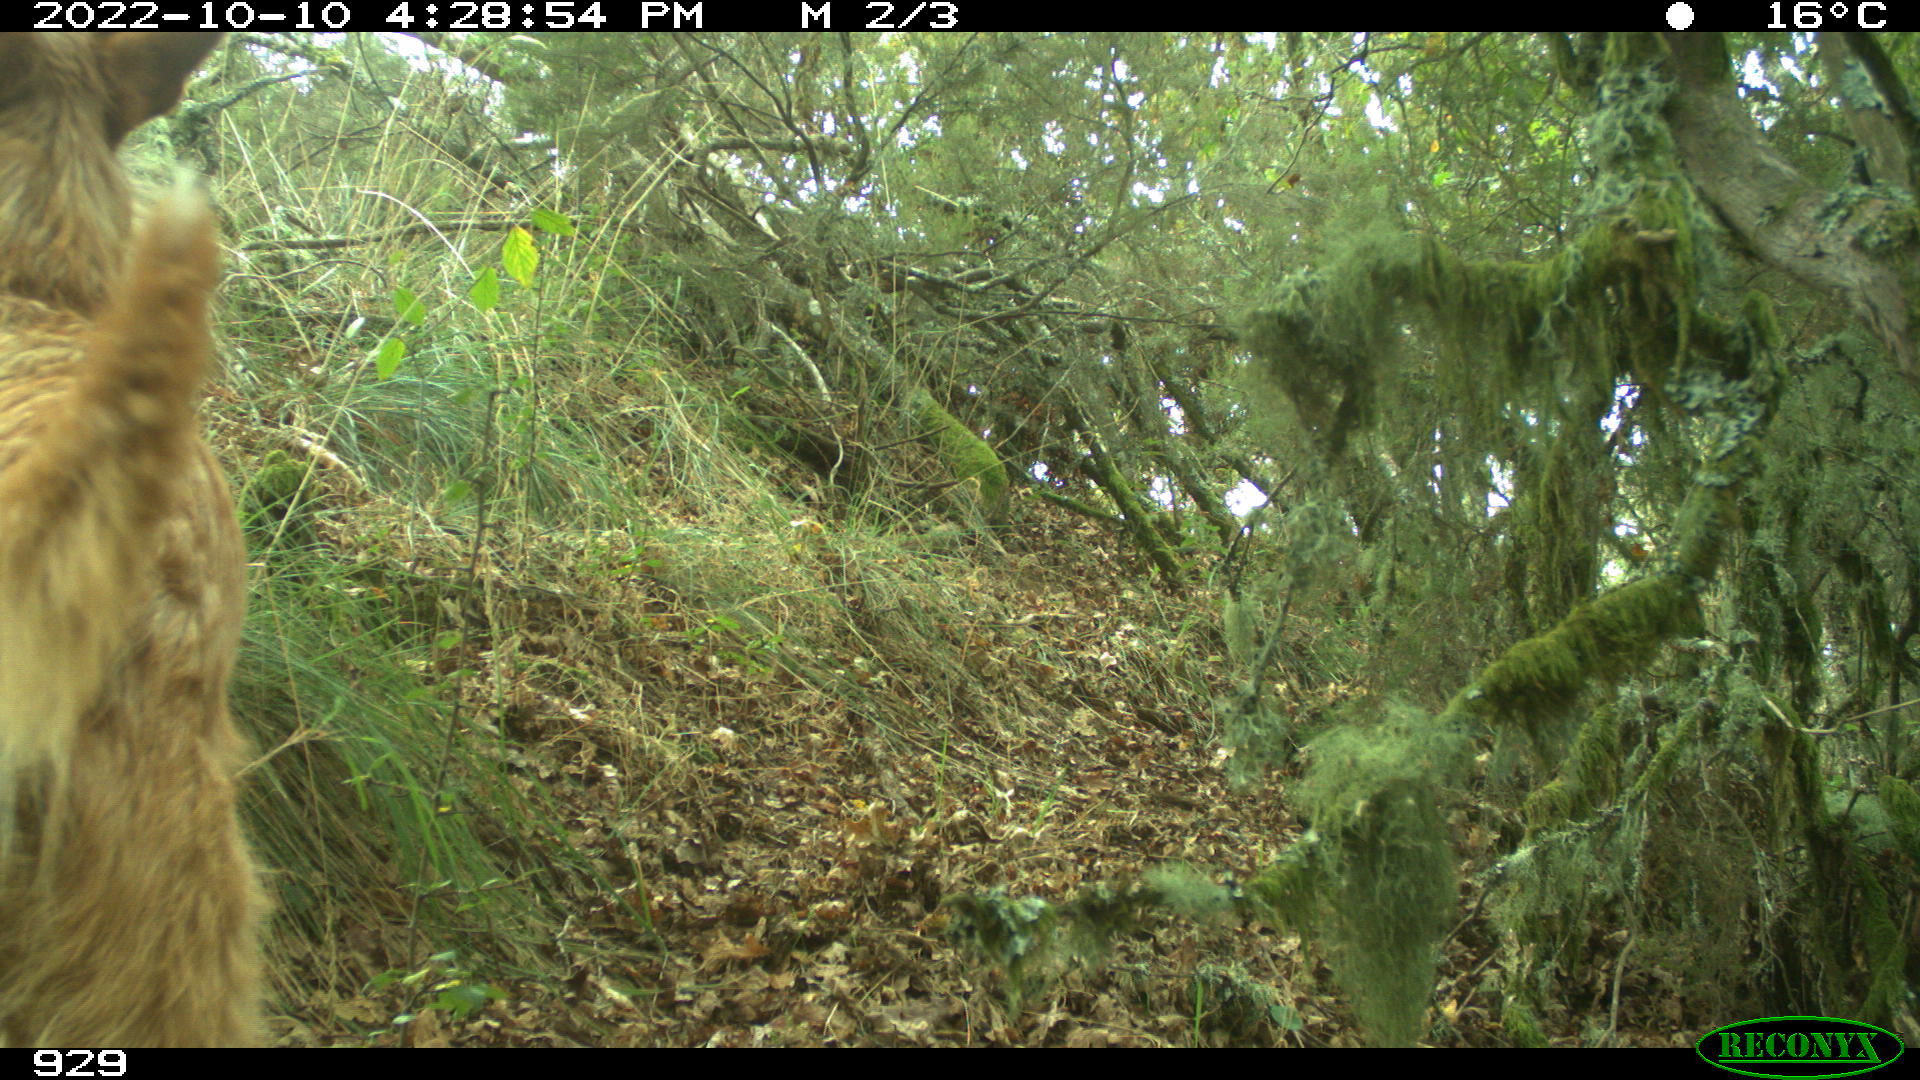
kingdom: Animalia
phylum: Chordata
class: Mammalia
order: Carnivora
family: Canidae
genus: Canis
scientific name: Canis lupus
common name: Gray wolf
